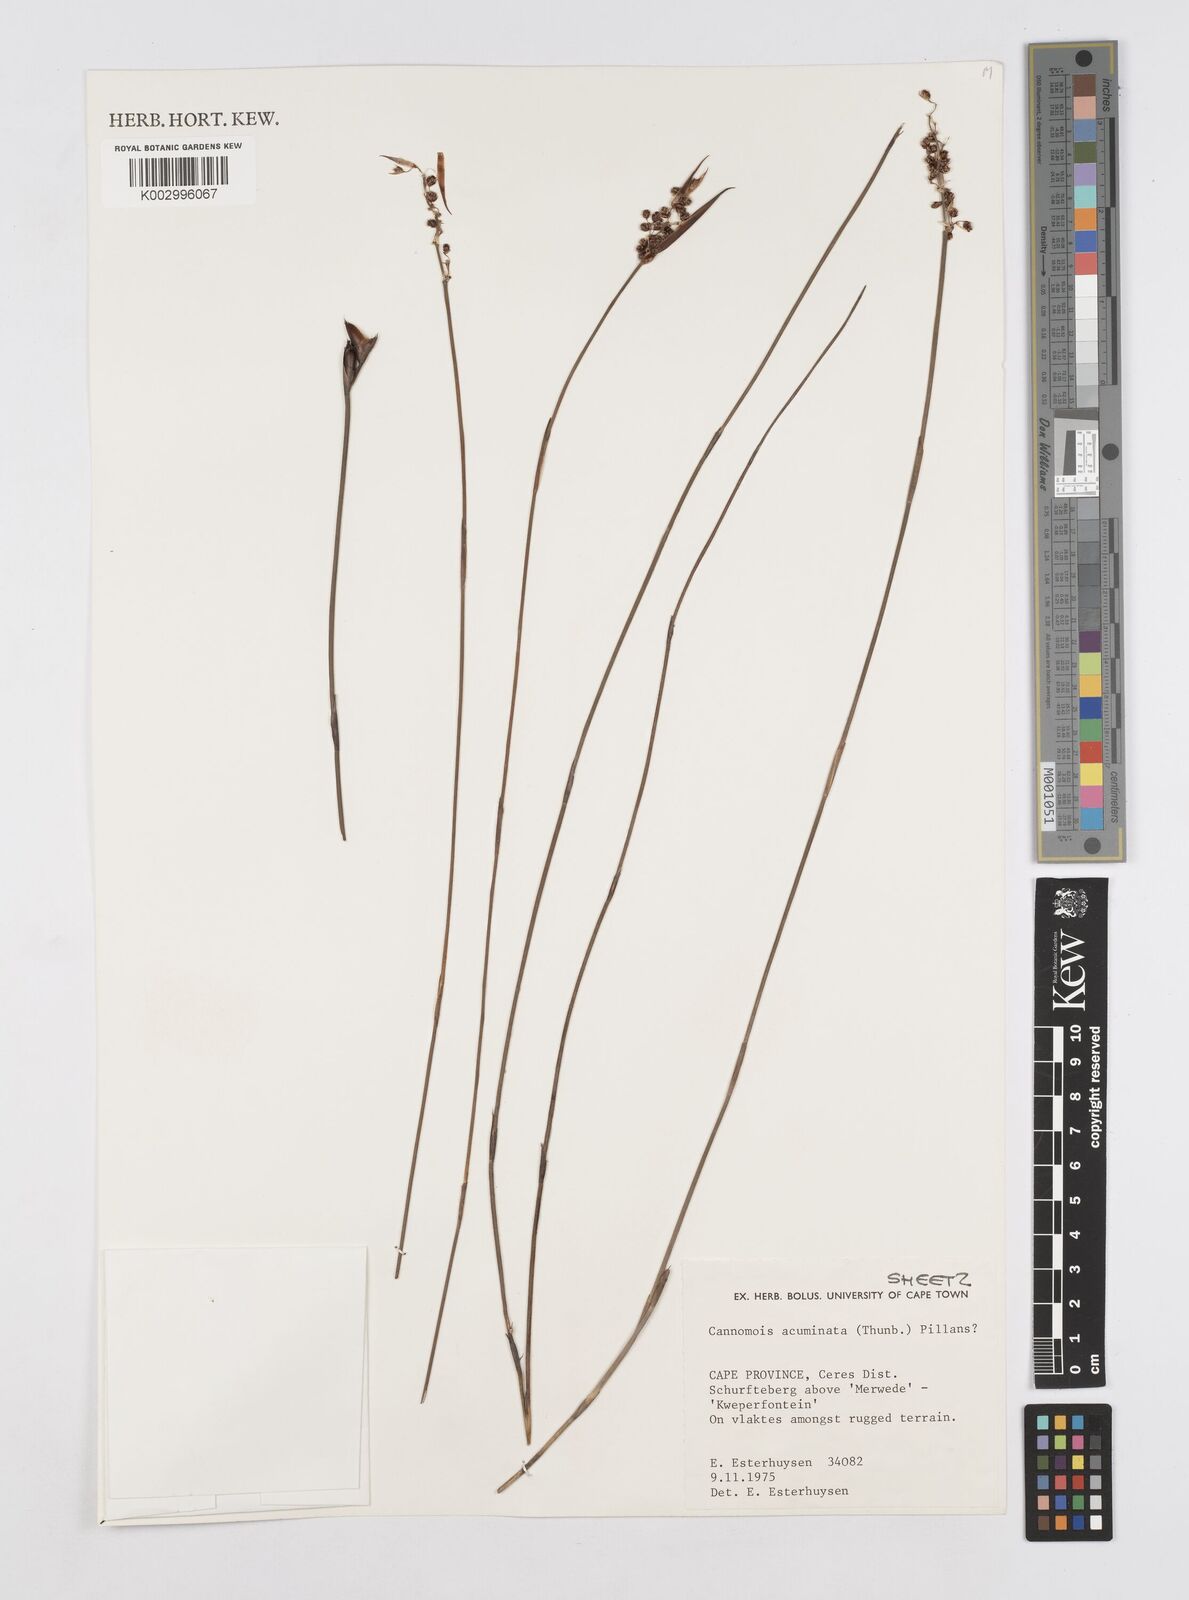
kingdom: Plantae
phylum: Tracheophyta
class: Liliopsida
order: Poales
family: Restionaceae
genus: Cannomois
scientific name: Cannomois parviflora
